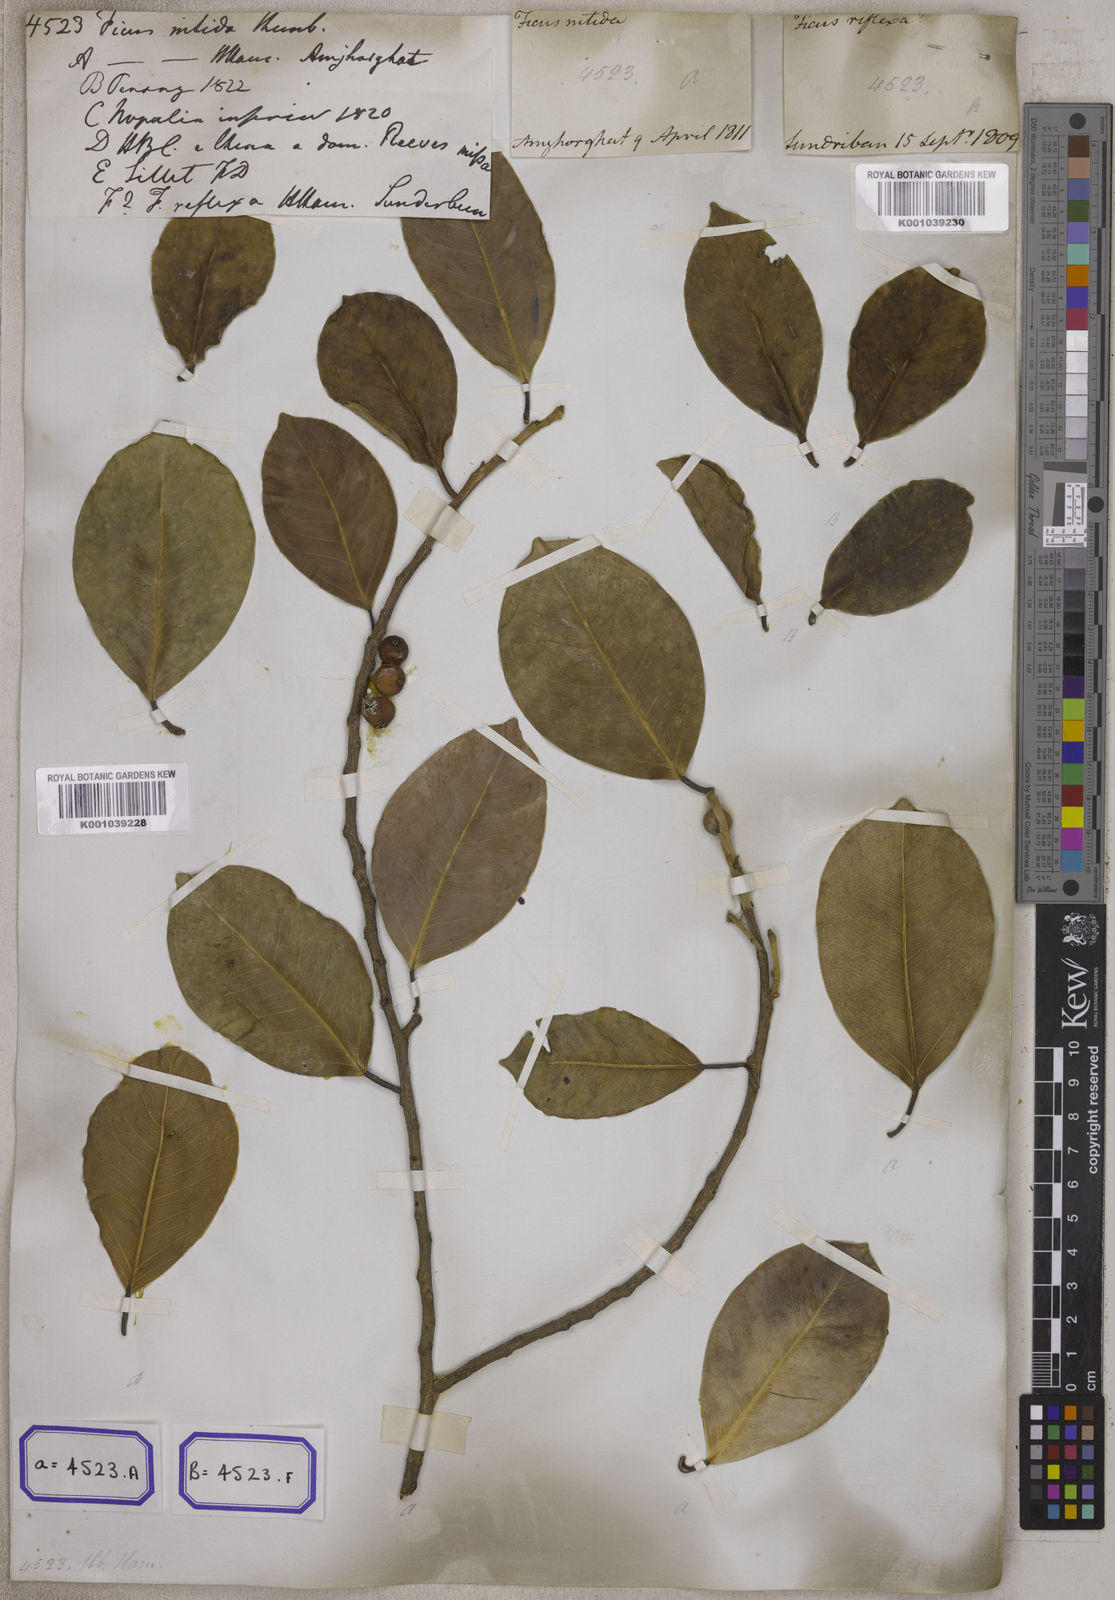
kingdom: Plantae
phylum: Tracheophyta
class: Magnoliopsida
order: Rosales
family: Moraceae
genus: Ficus
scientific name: Ficus benjamina
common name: Weeping fig
